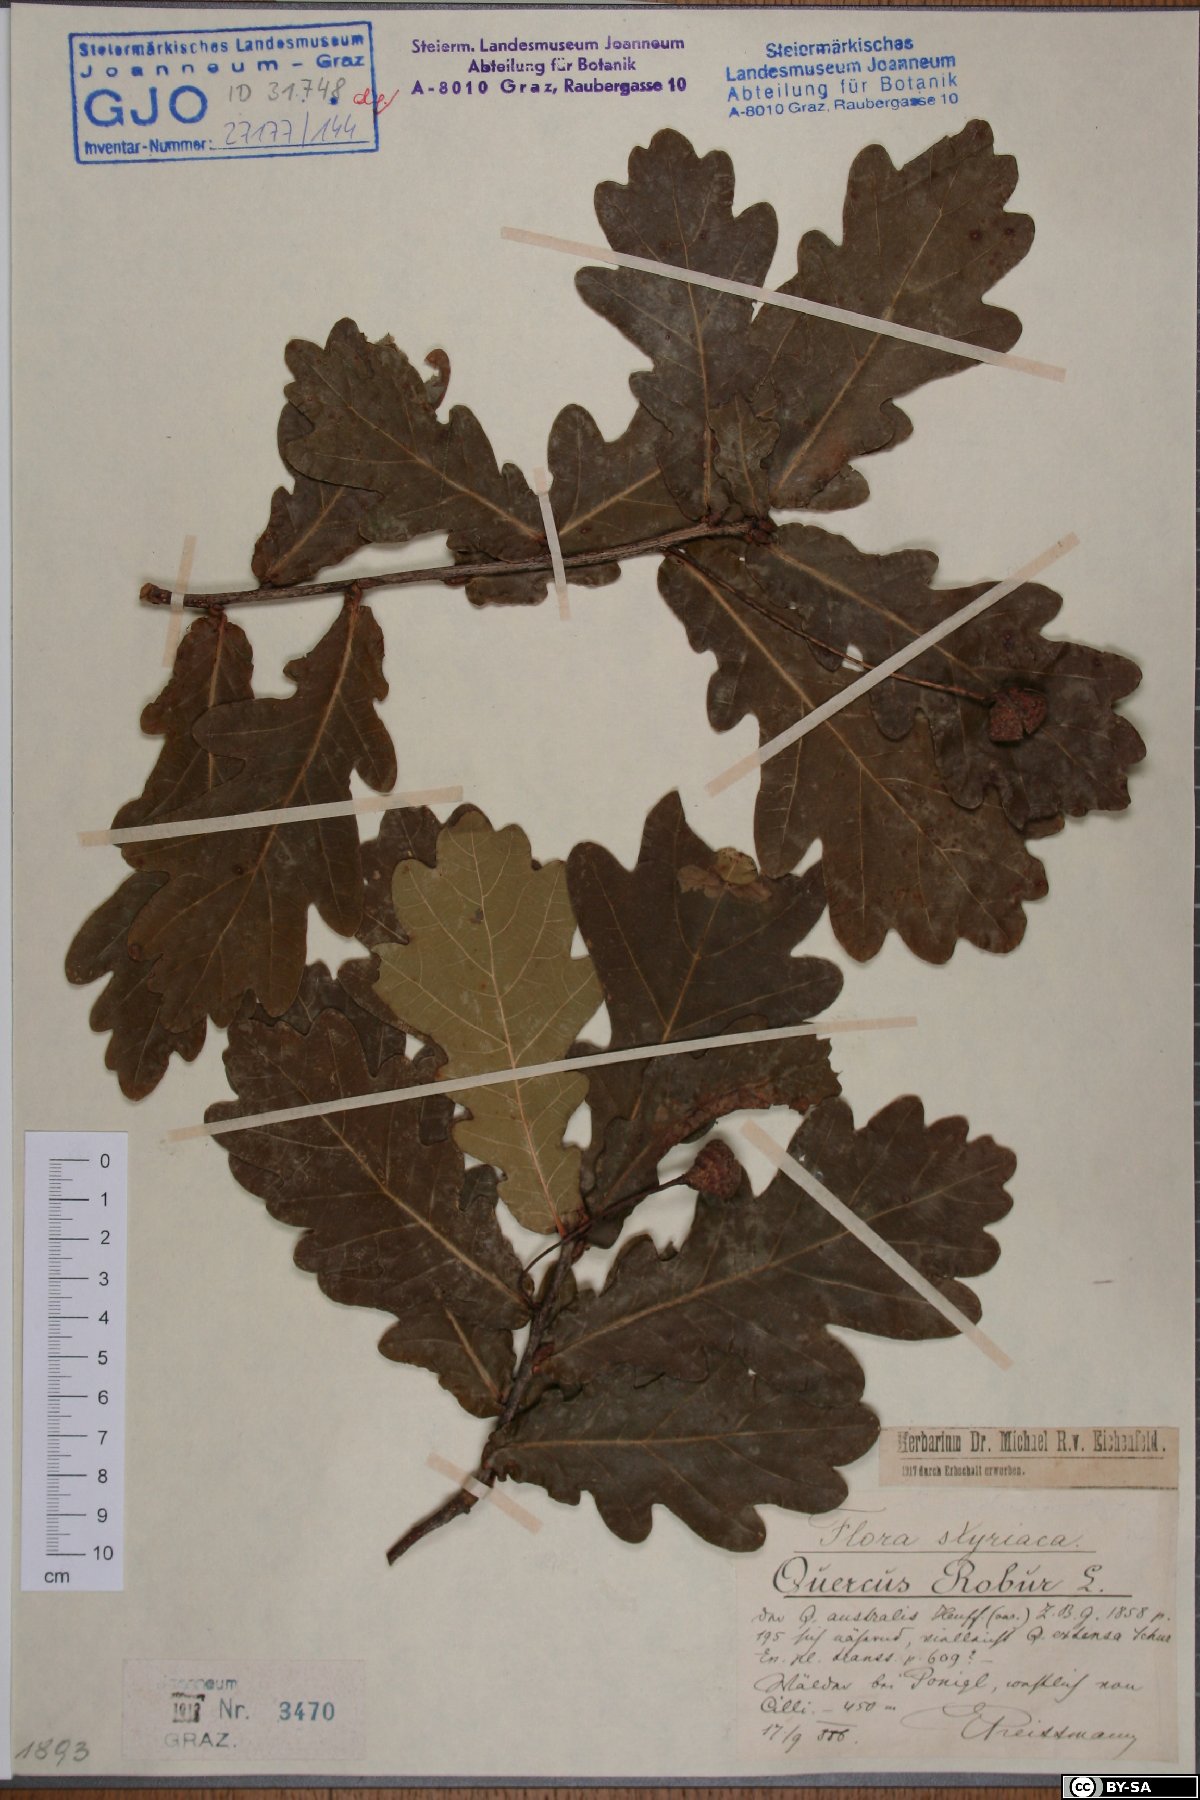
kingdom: Plantae
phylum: Tracheophyta
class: Magnoliopsida
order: Fagales
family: Fagaceae
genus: Quercus
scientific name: Quercus robur
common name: Pedunculate oak
